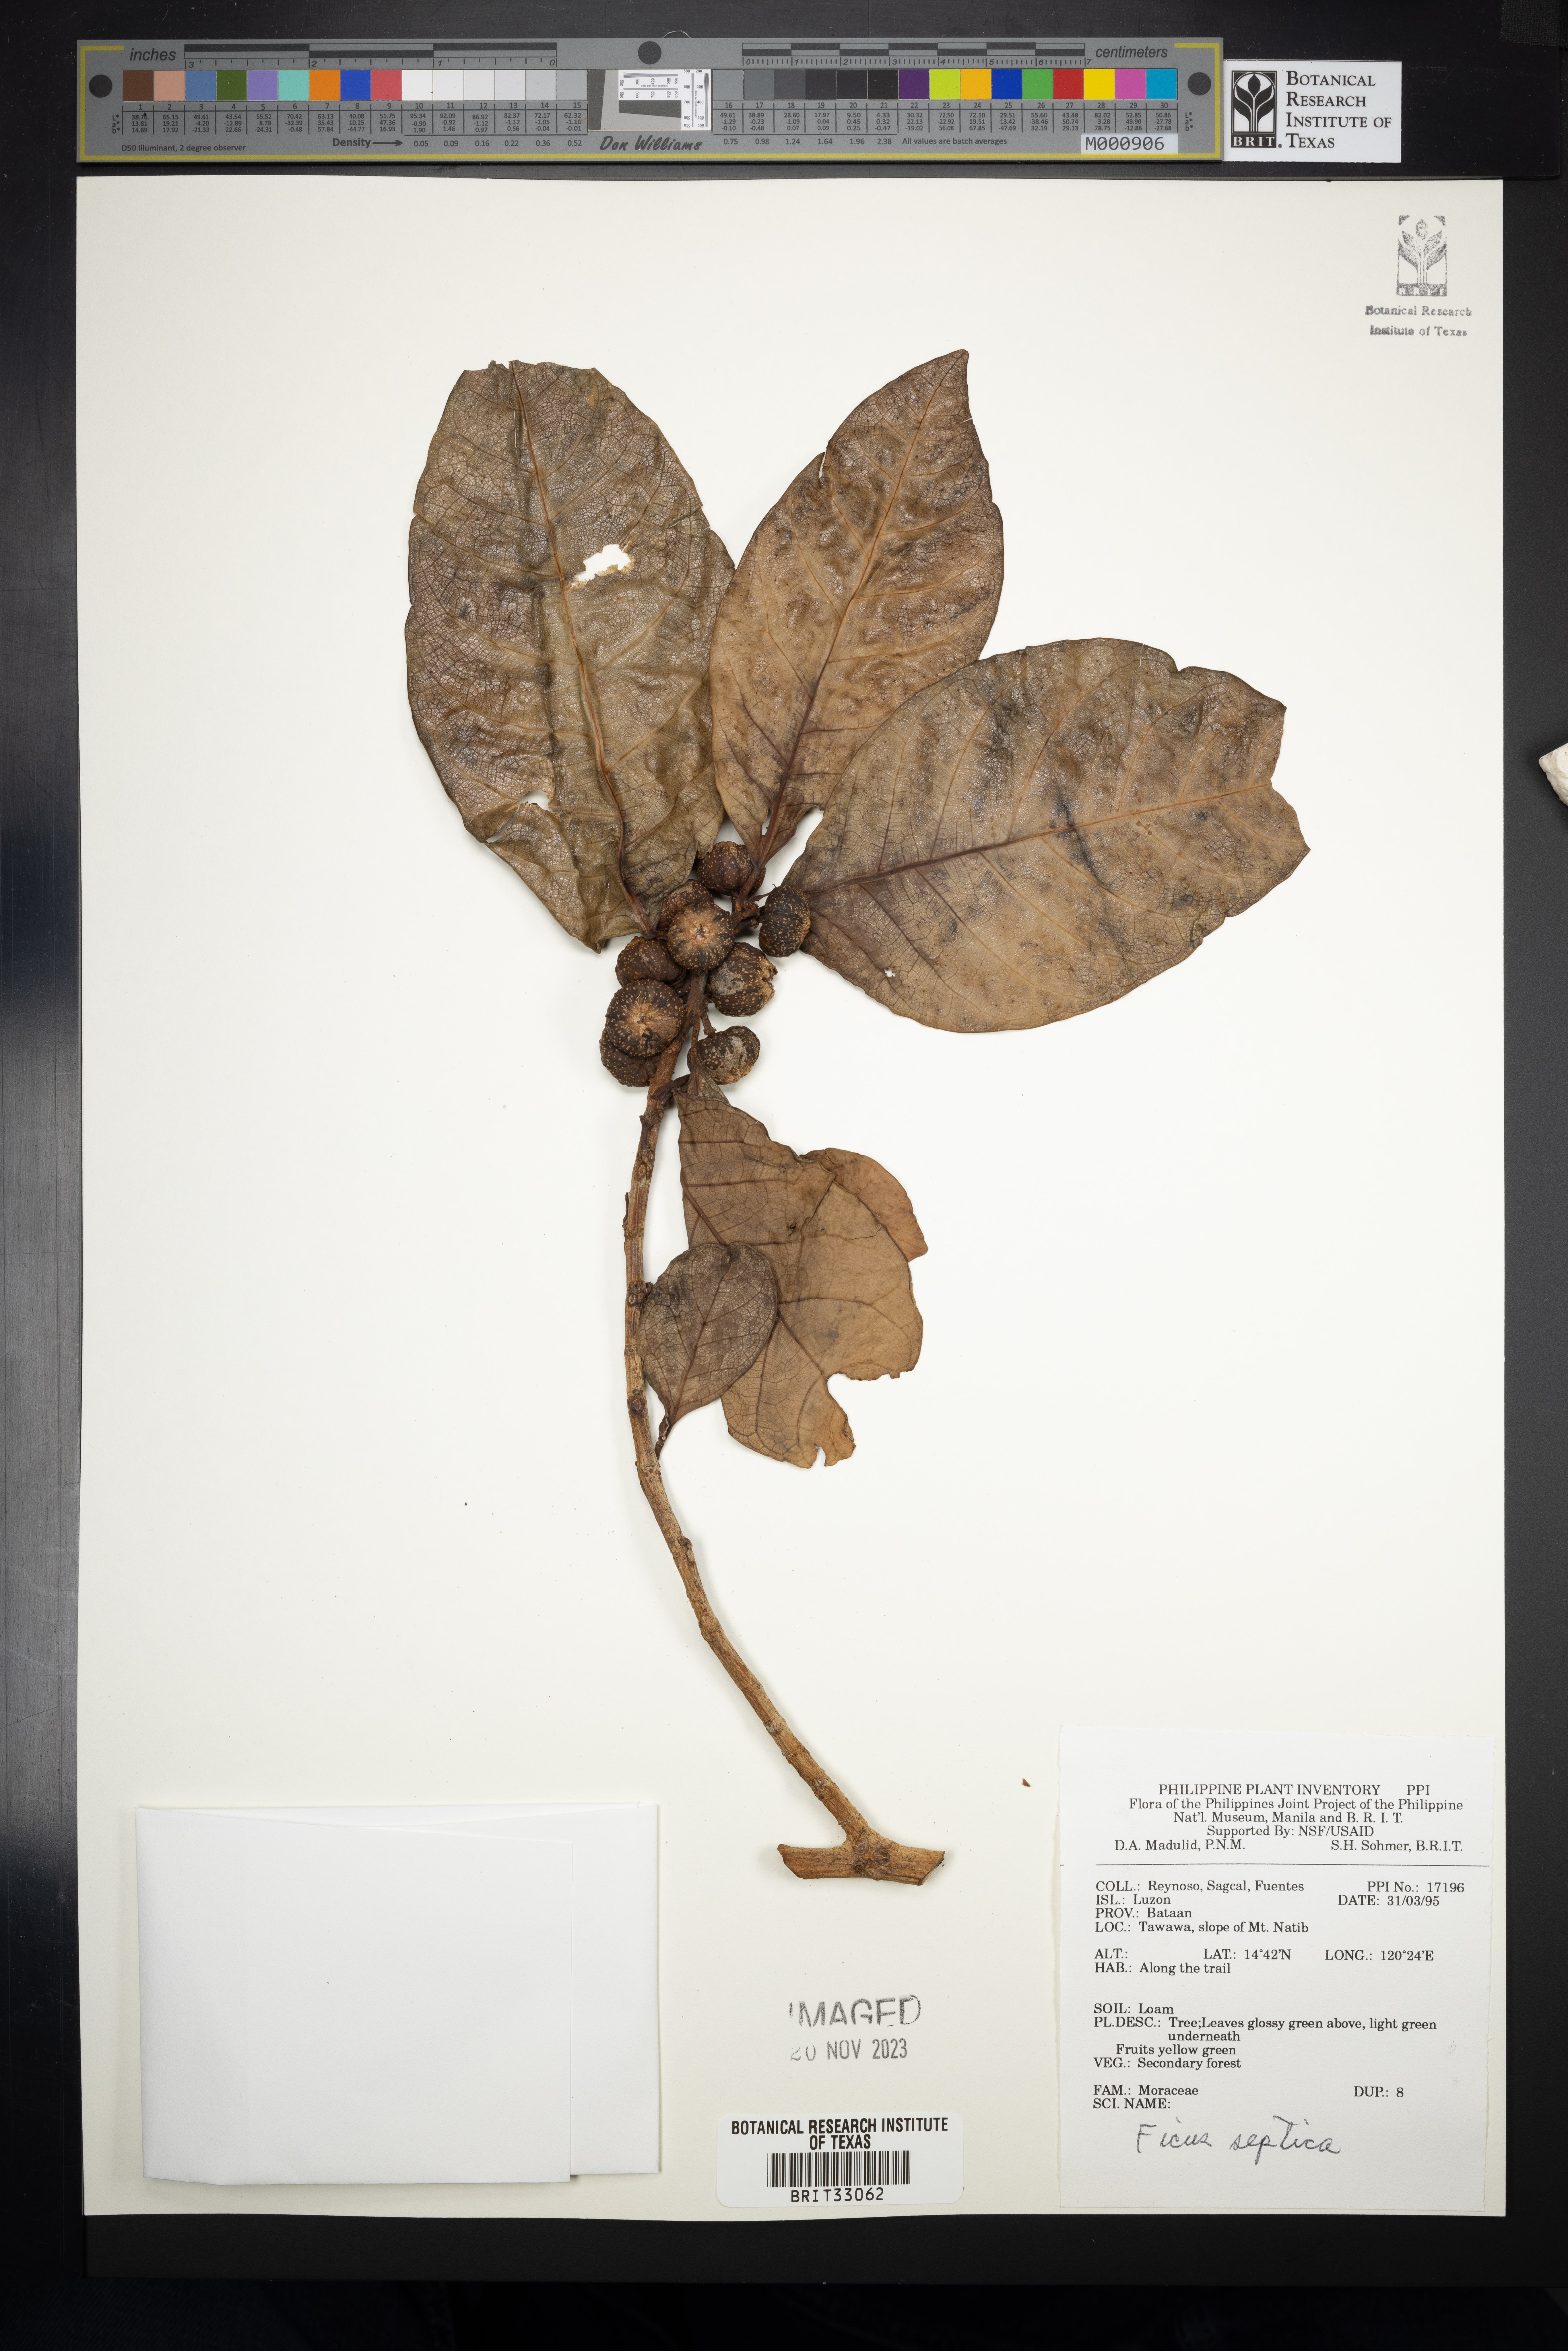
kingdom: Plantae
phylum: Tracheophyta
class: Magnoliopsida
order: Rosales
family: Moraceae
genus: Ficus
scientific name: Ficus septica
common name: Septic fig
